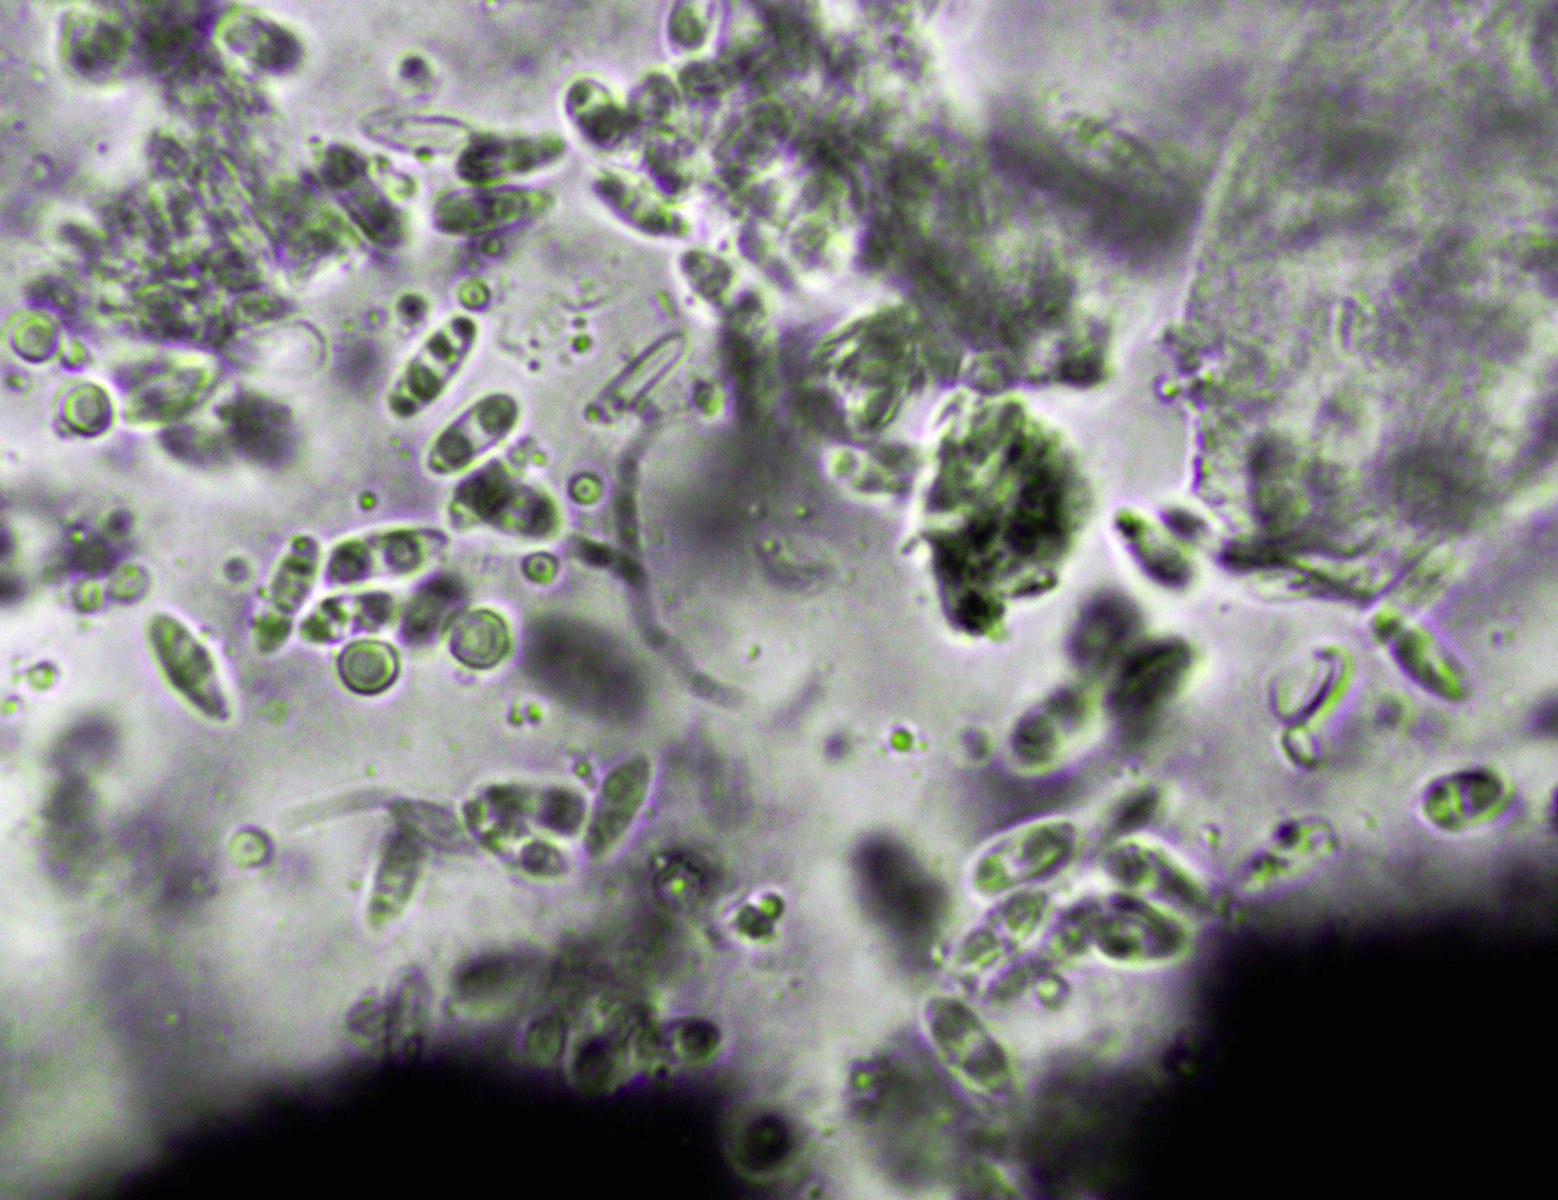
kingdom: Fungi
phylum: Ascomycota
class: Sordariomycetes
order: Diaporthales
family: Diaporthaceae
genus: Diaporthe
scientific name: Diaporthe pulla
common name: efeu-kulknippe
